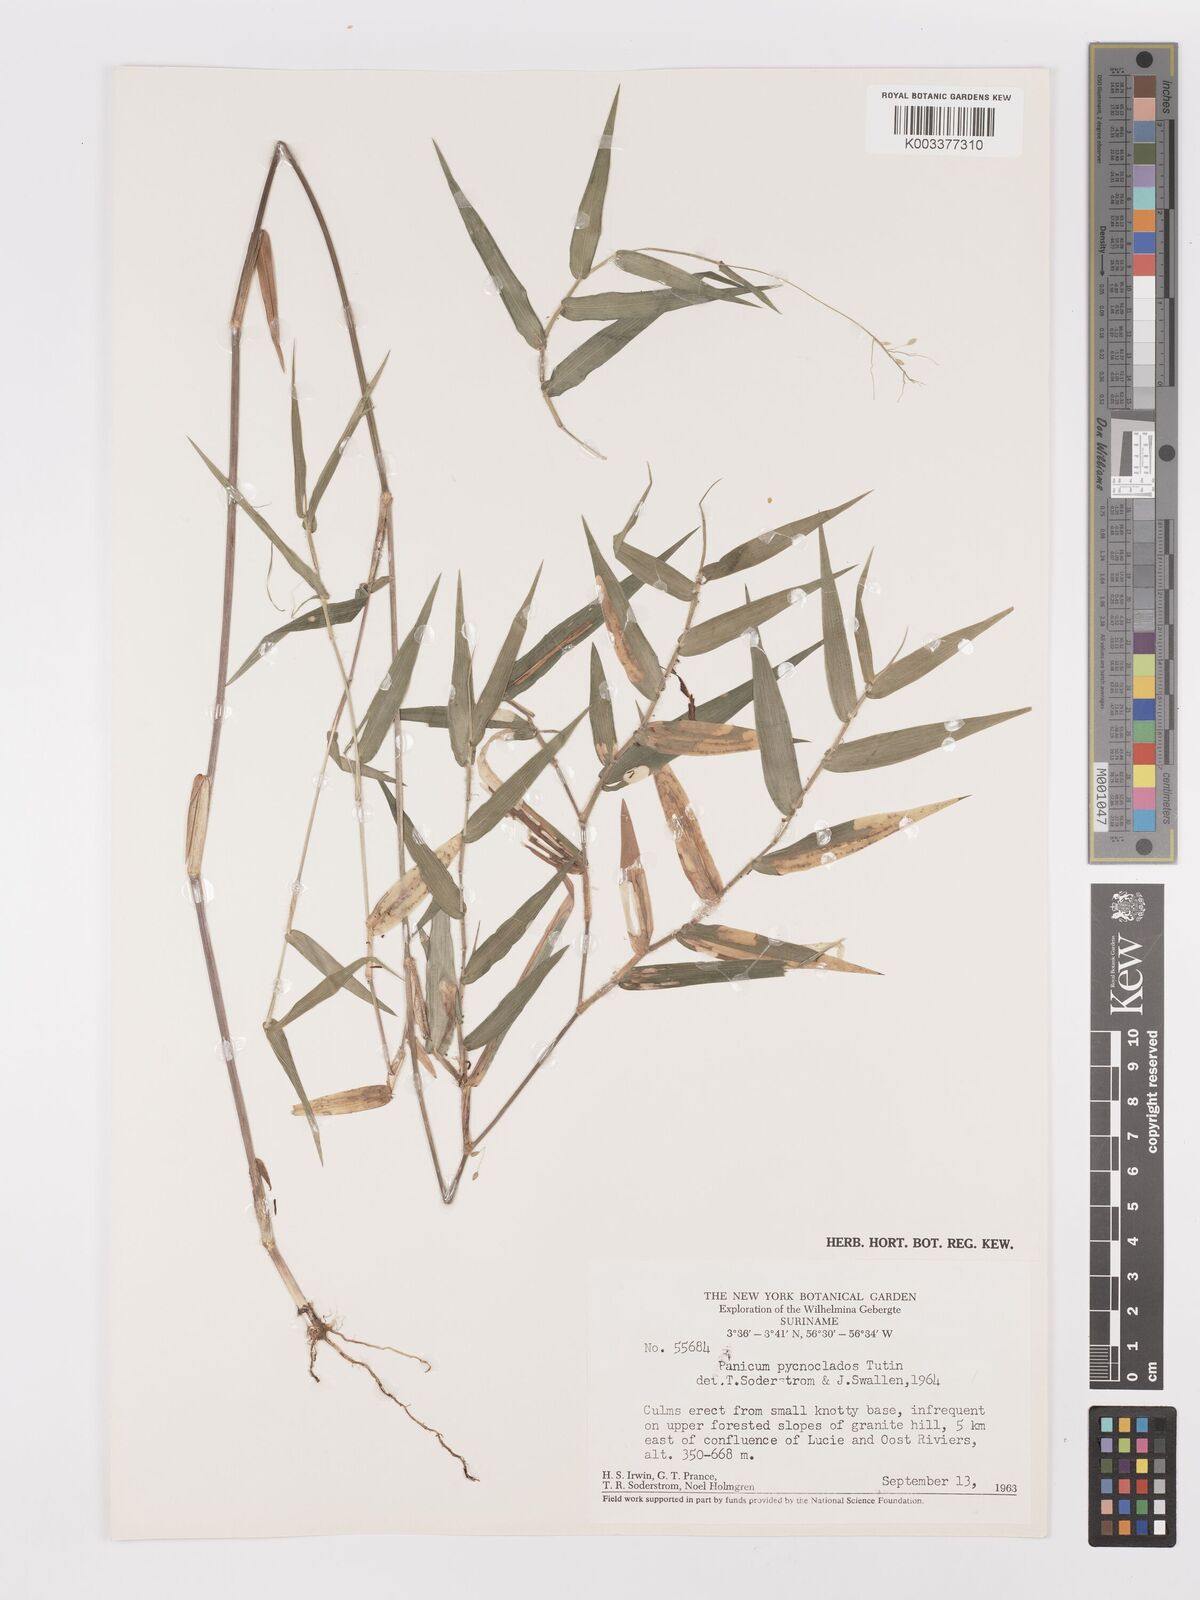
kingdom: Plantae
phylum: Tracheophyta
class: Liliopsida
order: Poales
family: Poaceae
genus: Dichanthelium
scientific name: Dichanthelium pycnoclados
